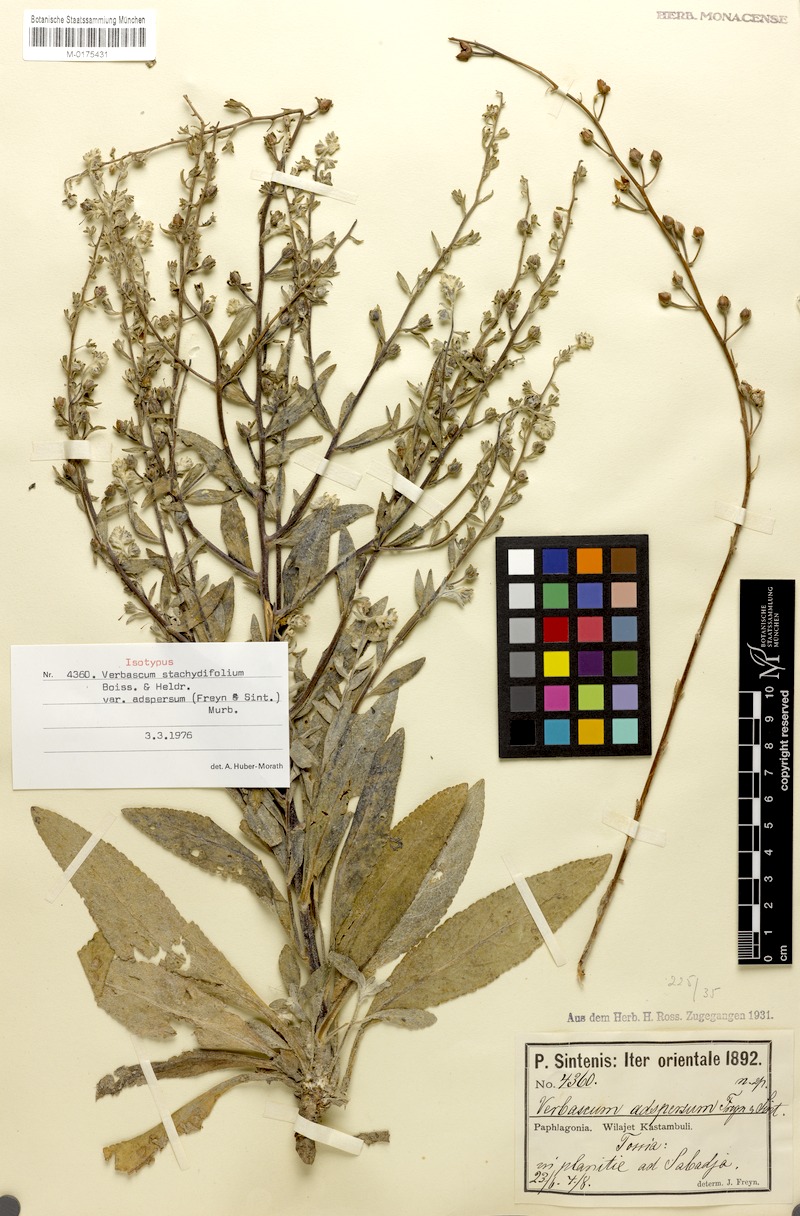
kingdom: Plantae
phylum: Tracheophyta
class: Magnoliopsida
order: Lamiales
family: Scrophulariaceae
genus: Verbascum
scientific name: Verbascum stachydifolium
